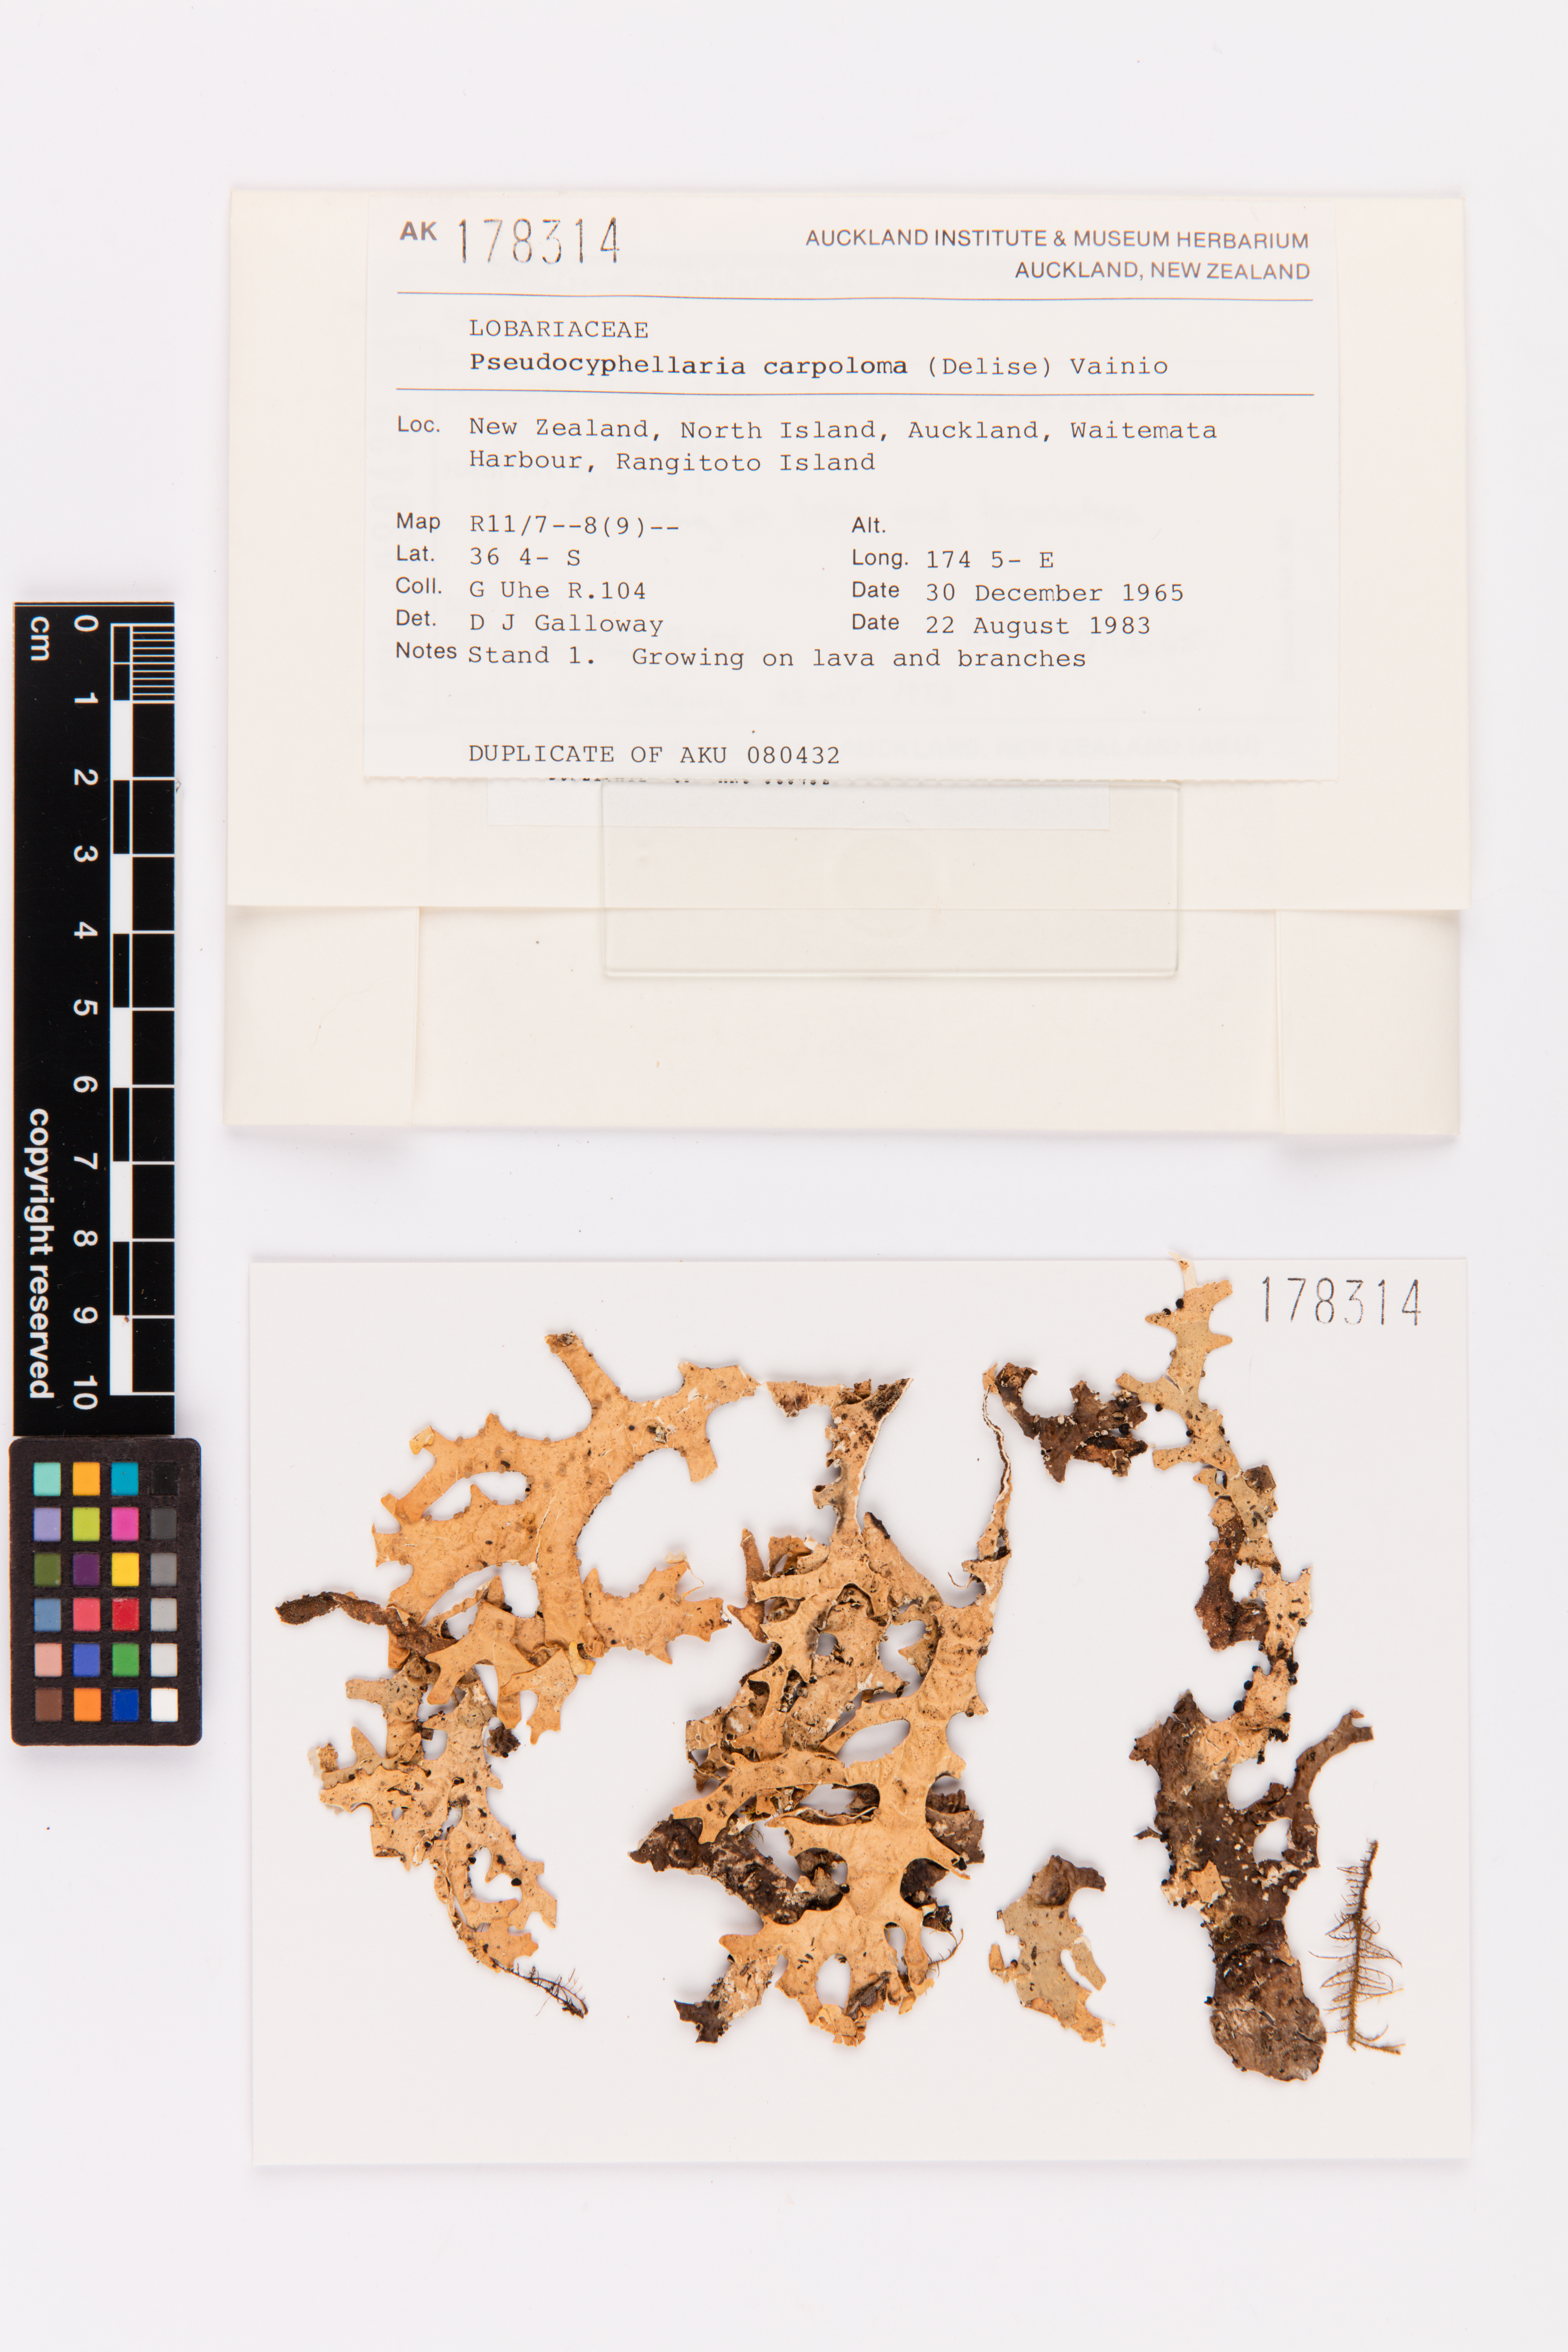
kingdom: Fungi
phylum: Ascomycota
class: Lecanoromycetes
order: Peltigerales
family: Lobariaceae
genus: Pseudocyphellaria
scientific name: Pseudocyphellaria carpoloma
